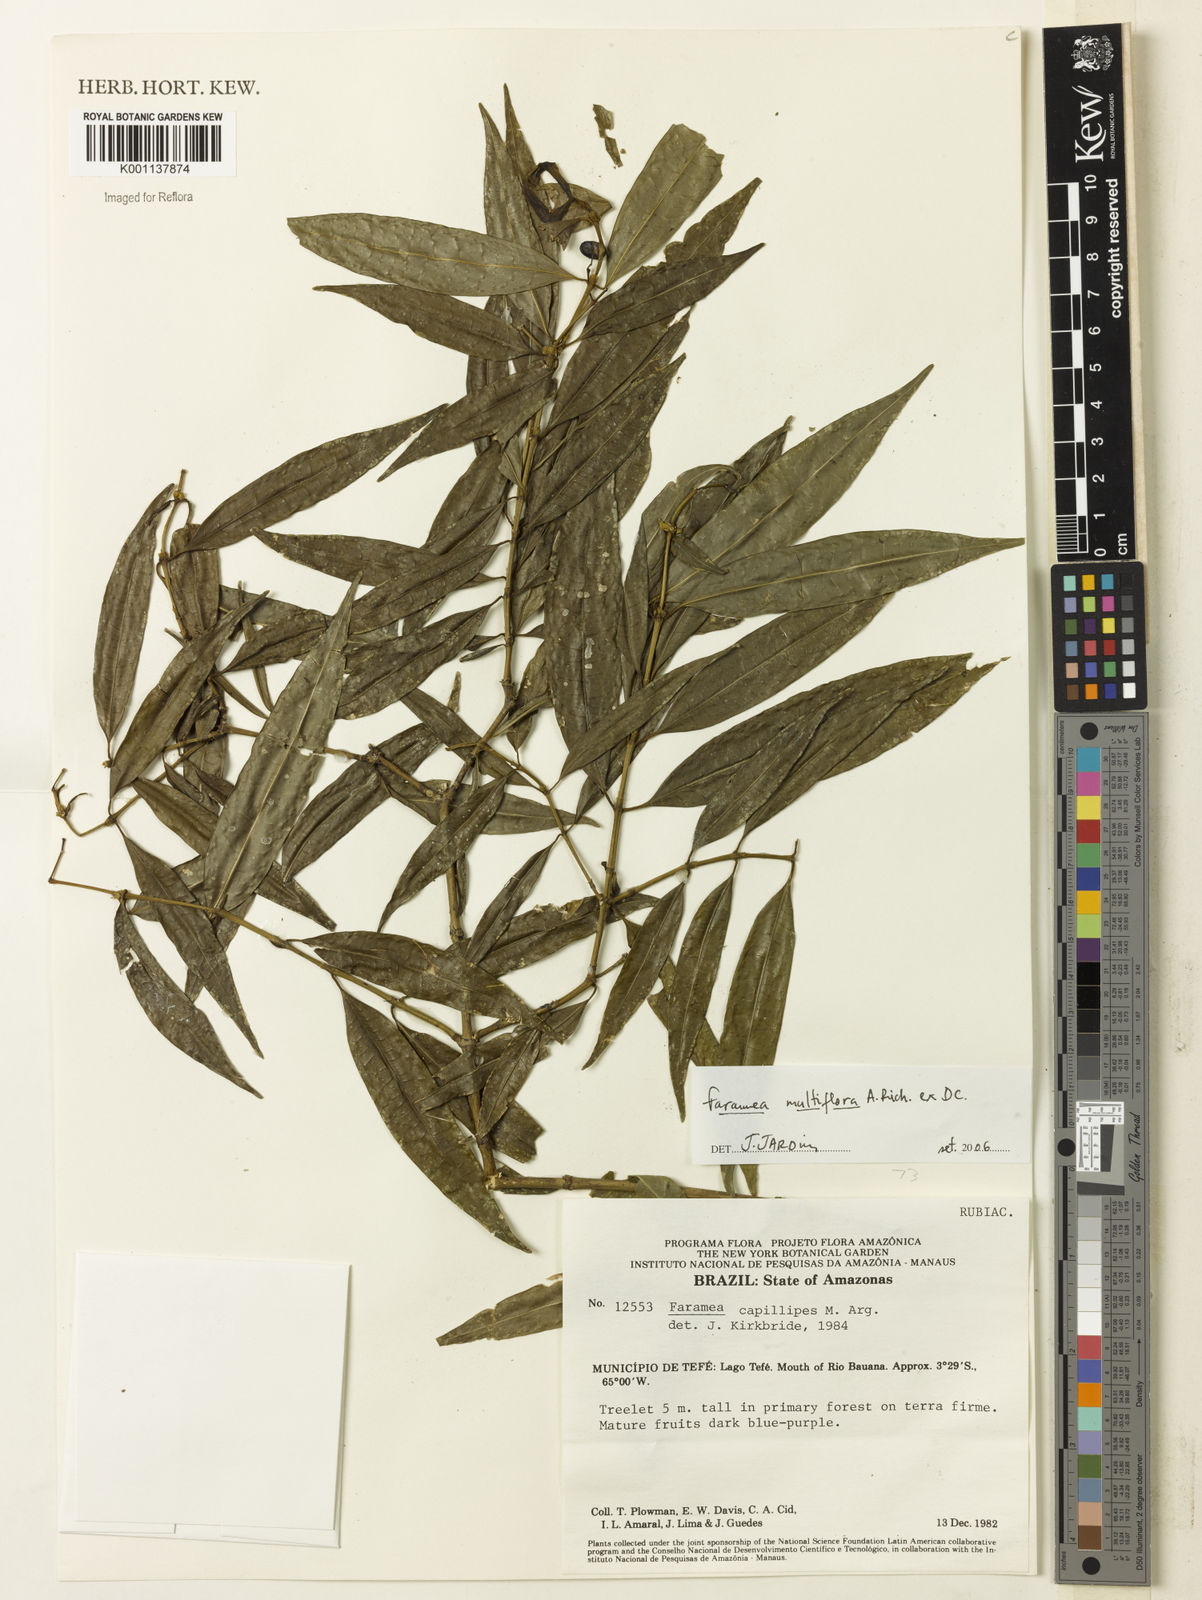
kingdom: Plantae
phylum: Tracheophyta
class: Magnoliopsida
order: Gentianales
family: Rubiaceae
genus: Faramea
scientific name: Faramea multiflora
